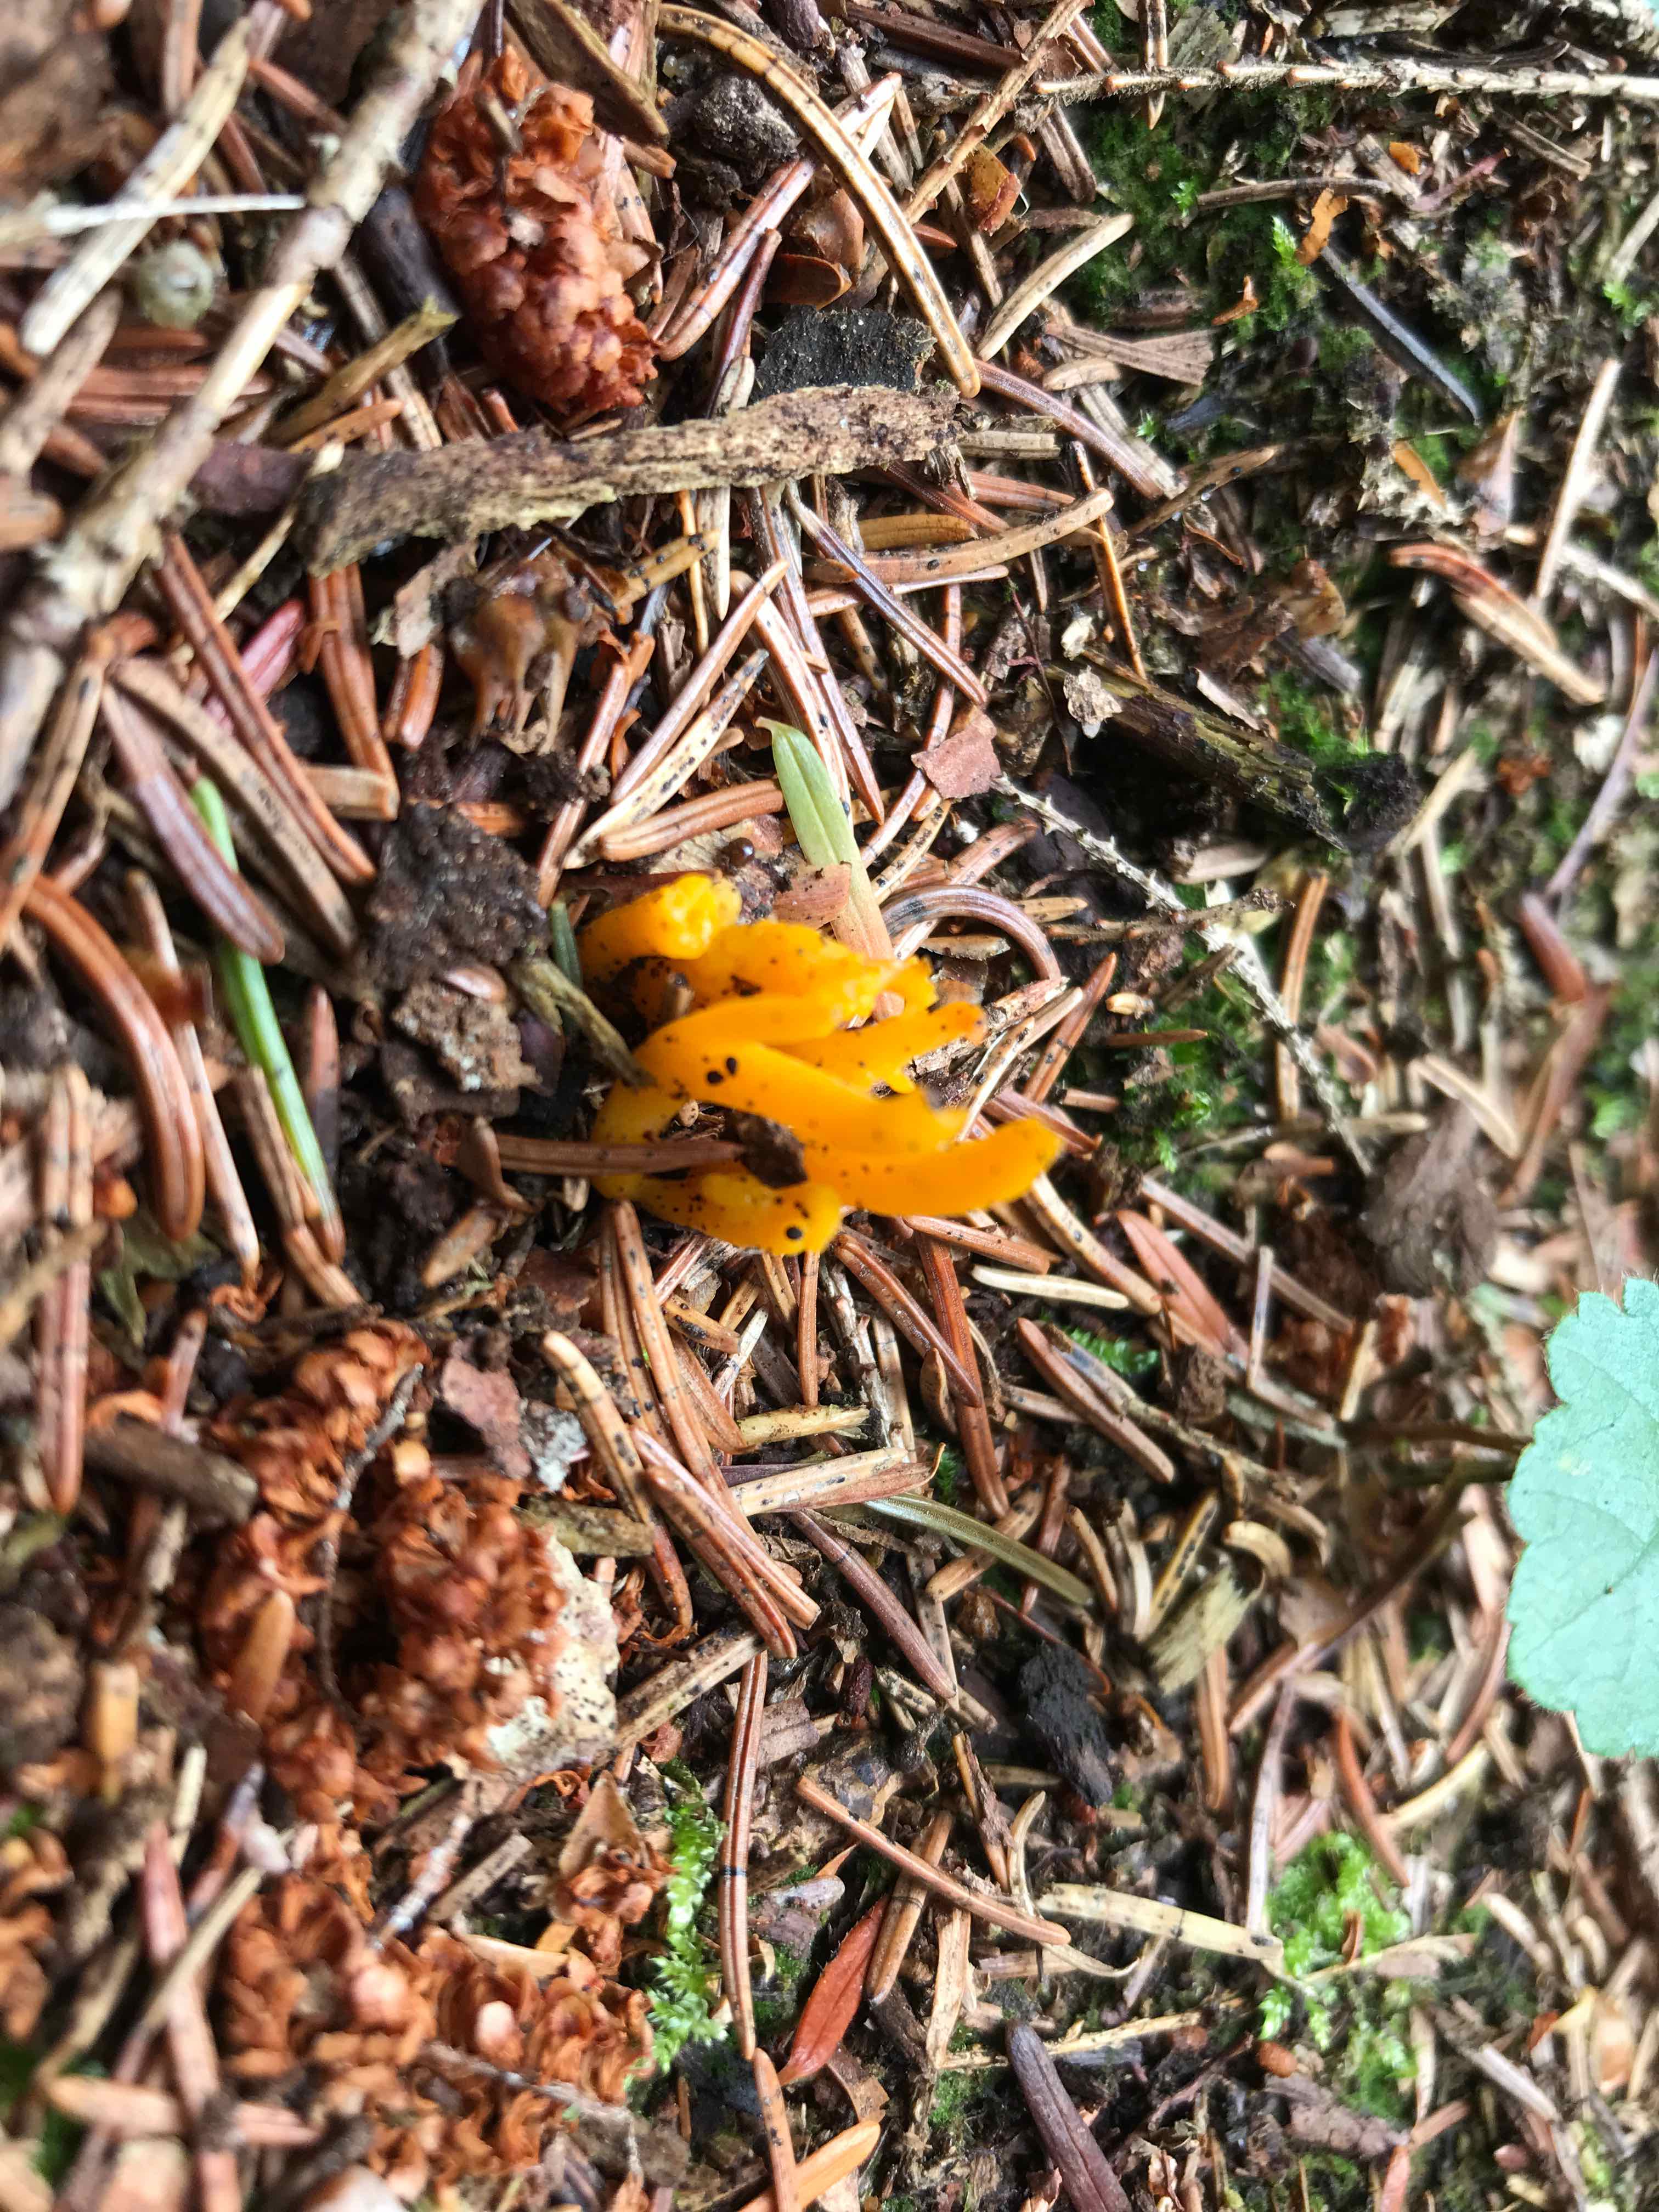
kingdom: Fungi
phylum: Basidiomycota
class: Dacrymycetes
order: Dacrymycetales
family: Dacrymycetaceae
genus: Calocera
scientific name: Calocera viscosa
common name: almindelig guldgaffel
